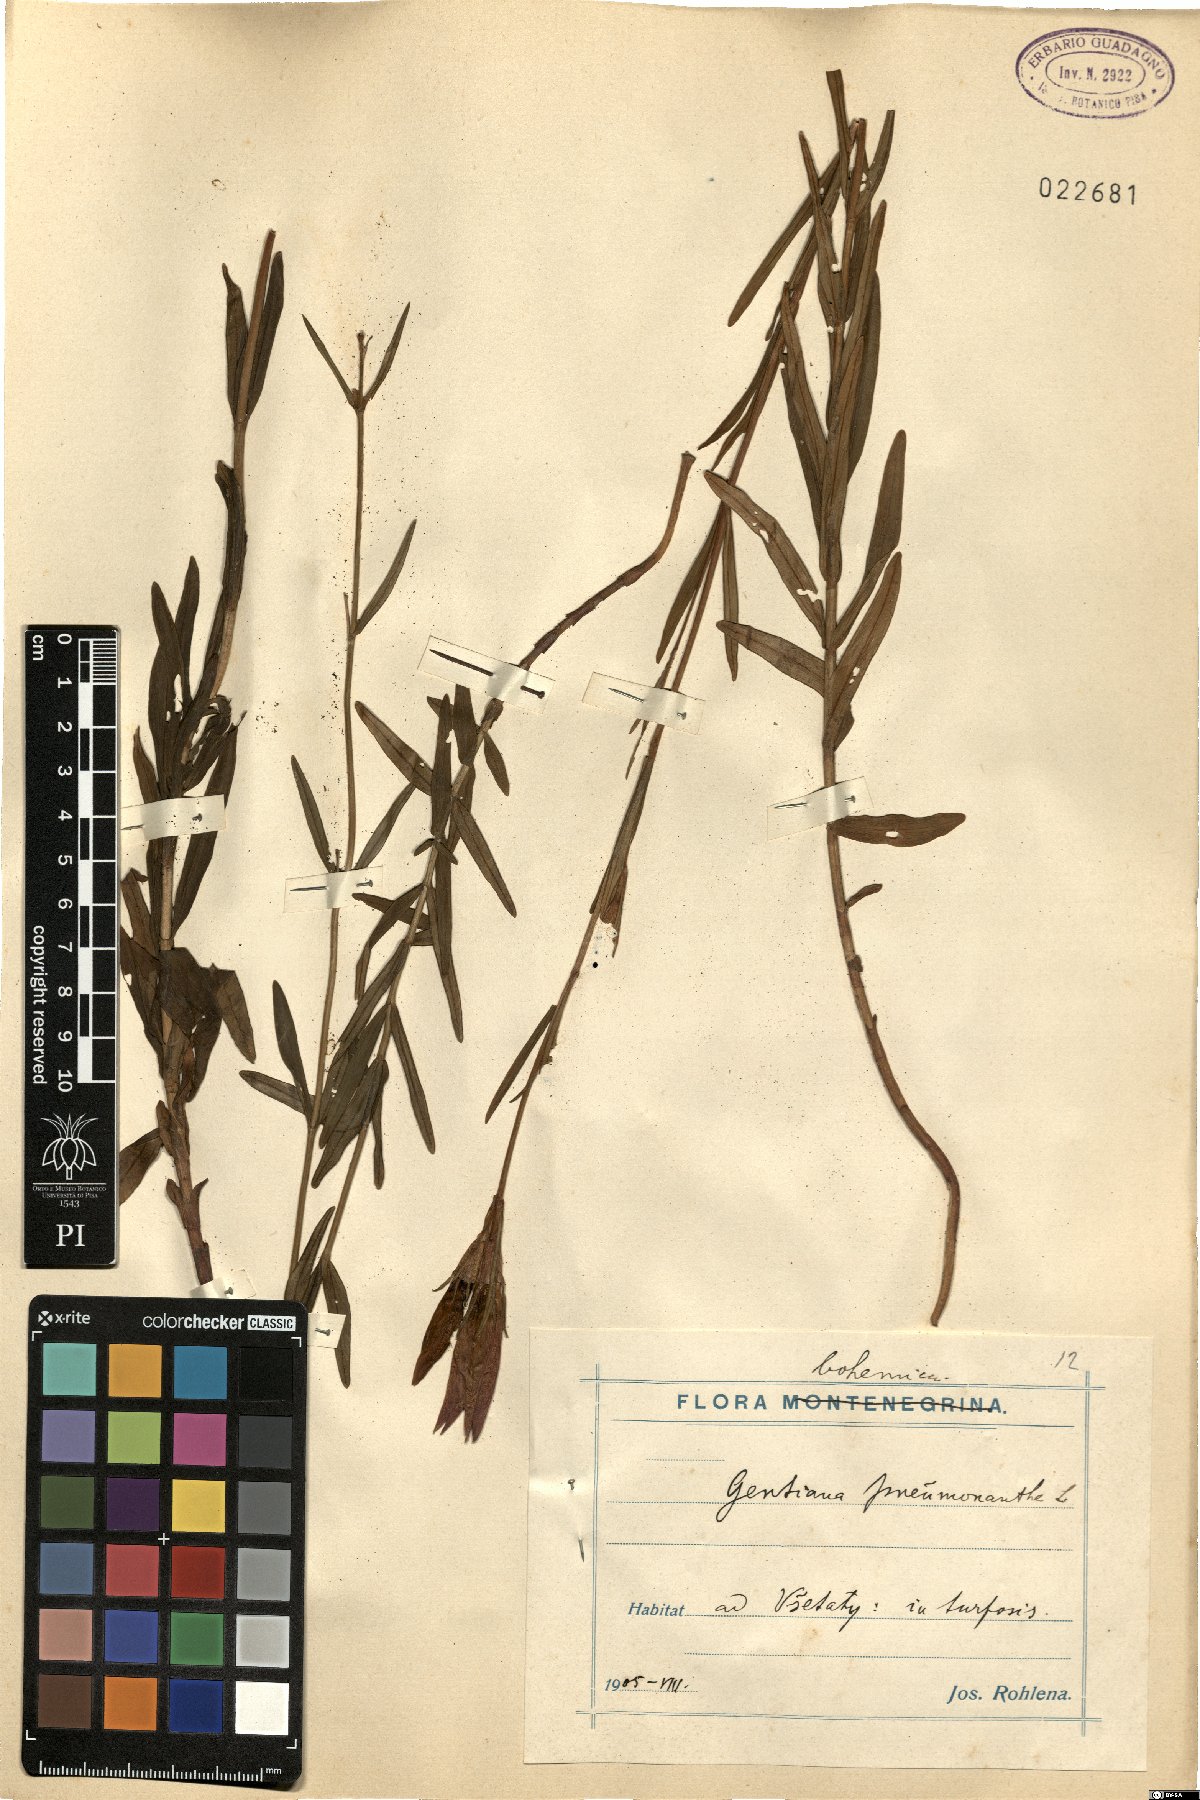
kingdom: Plantae
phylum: Tracheophyta
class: Magnoliopsida
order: Gentianales
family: Gentianaceae
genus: Gentiana
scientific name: Gentiana pneumonanthe
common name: Marsh gentian
